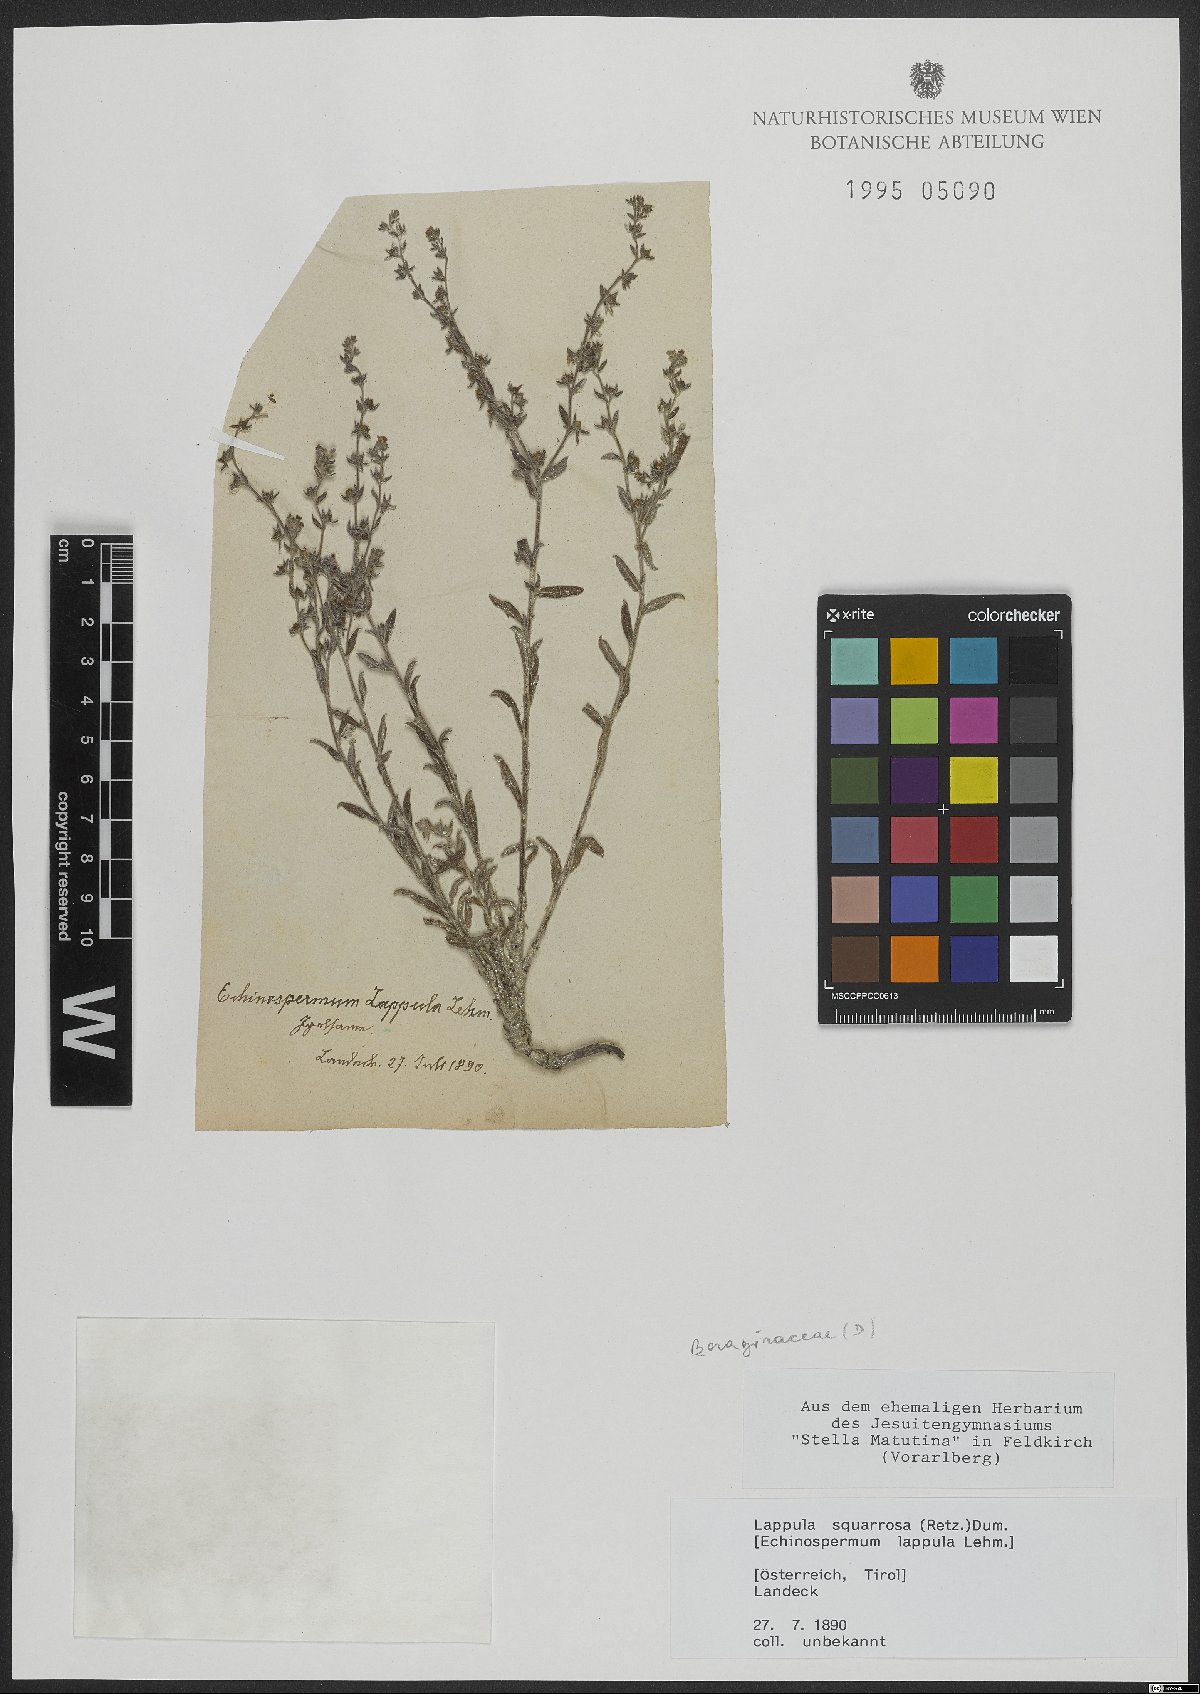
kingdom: Plantae
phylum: Tracheophyta
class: Magnoliopsida
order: Boraginales
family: Boraginaceae
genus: Lappula
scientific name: Lappula squarrosa
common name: European stickseed
